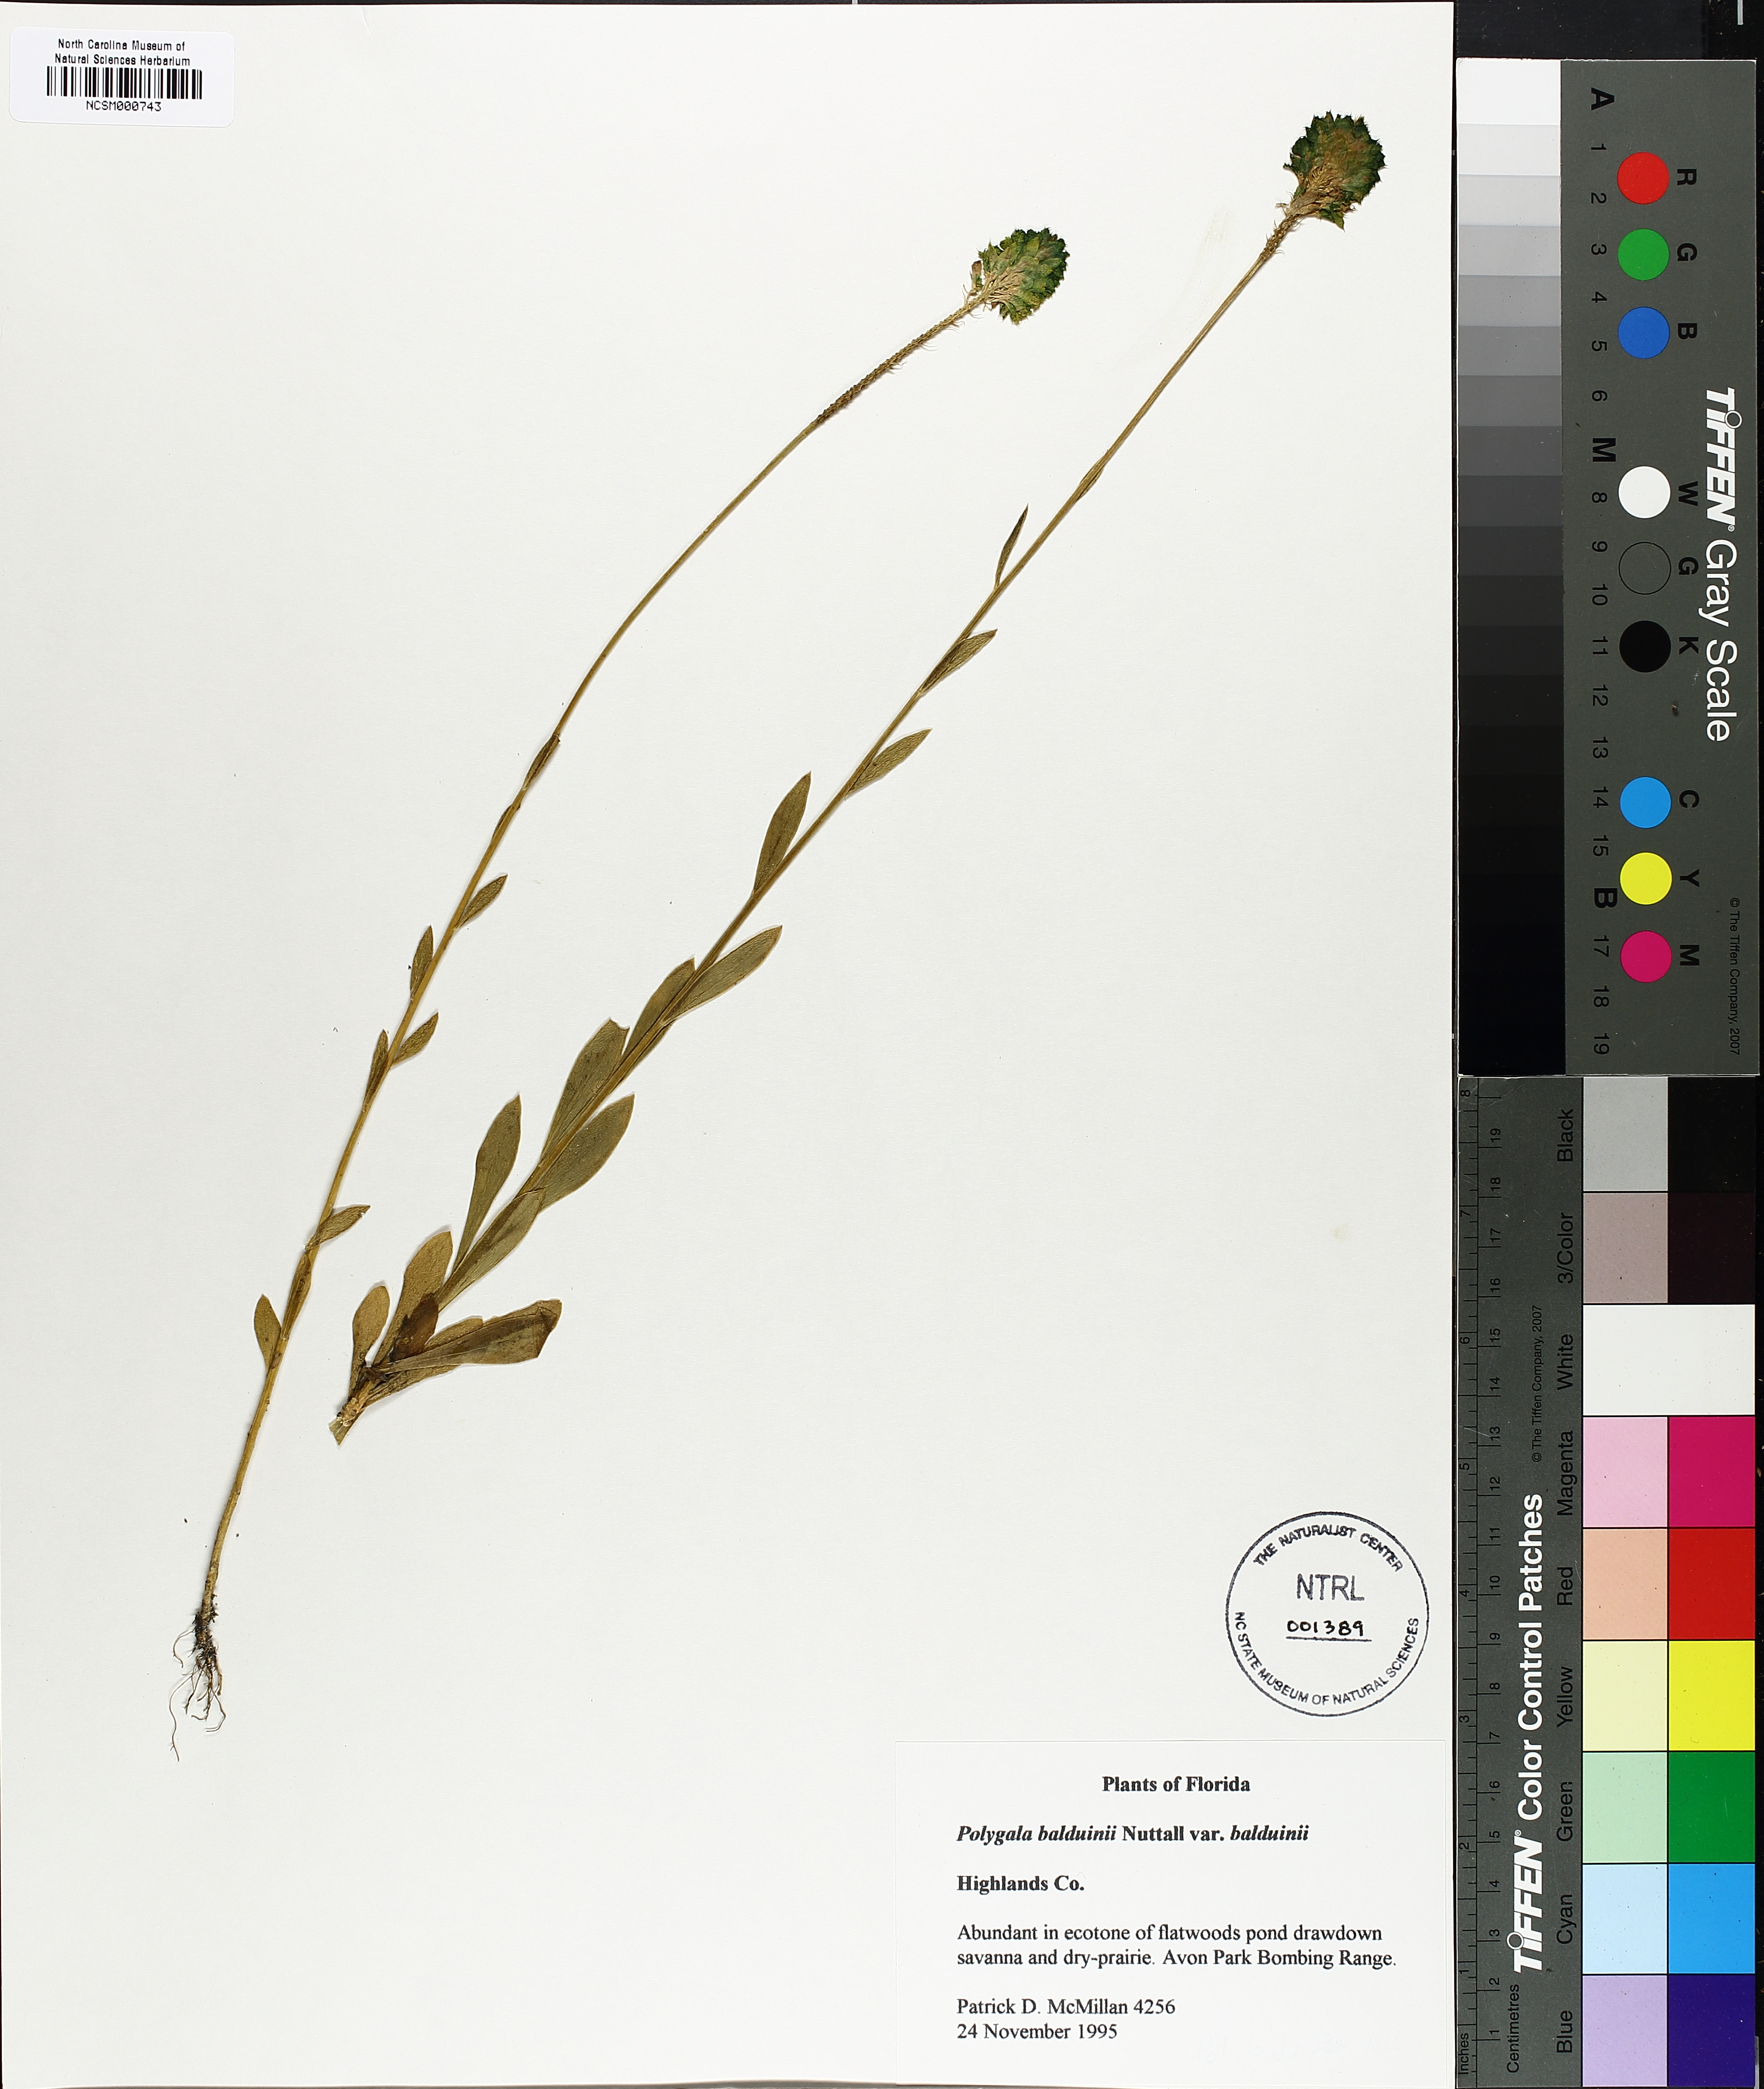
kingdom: Plantae
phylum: Tracheophyta
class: Magnoliopsida
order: Fabales
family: Polygalaceae
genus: Polygala
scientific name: Polygala baldwinii
